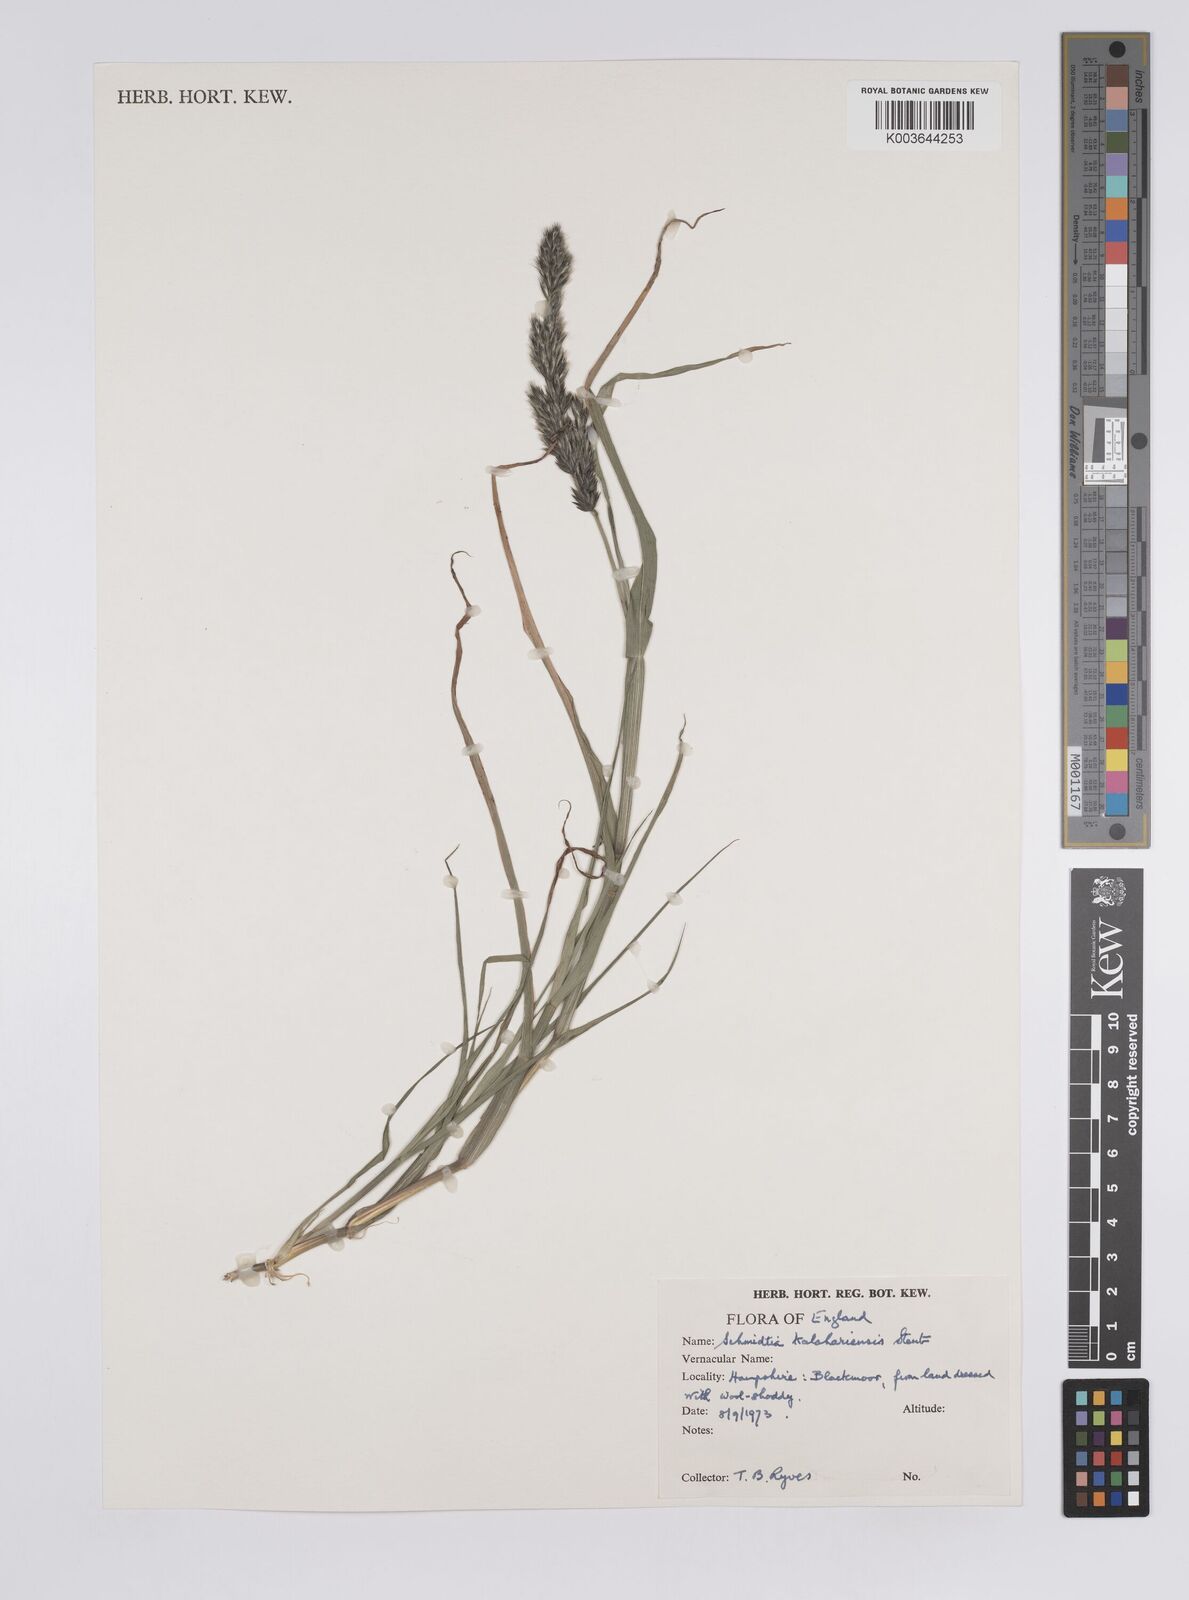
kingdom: Plantae
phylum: Tracheophyta
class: Liliopsida
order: Poales
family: Poaceae
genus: Schmidtia
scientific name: Schmidtia kalahariensis
